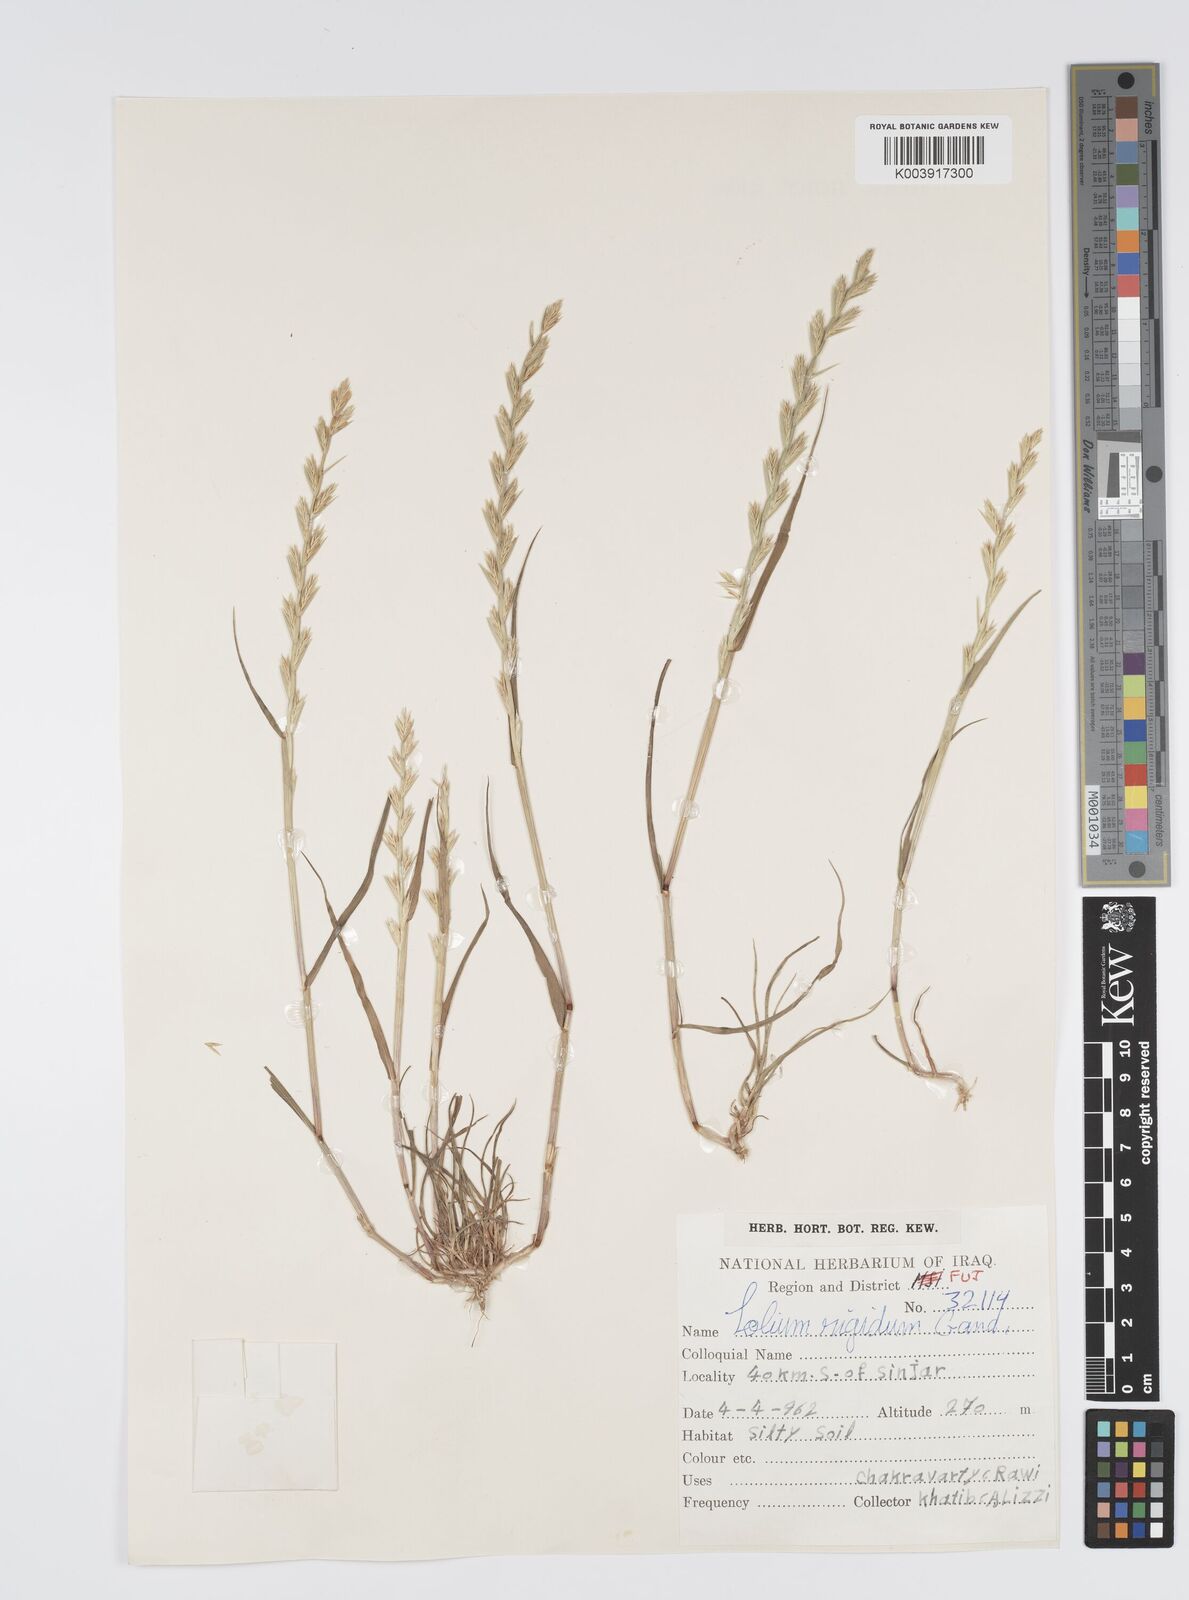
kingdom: Plantae
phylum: Tracheophyta
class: Liliopsida
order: Poales
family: Poaceae
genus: Lolium
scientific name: Lolium rigidum
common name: Wimmera ryegrass
